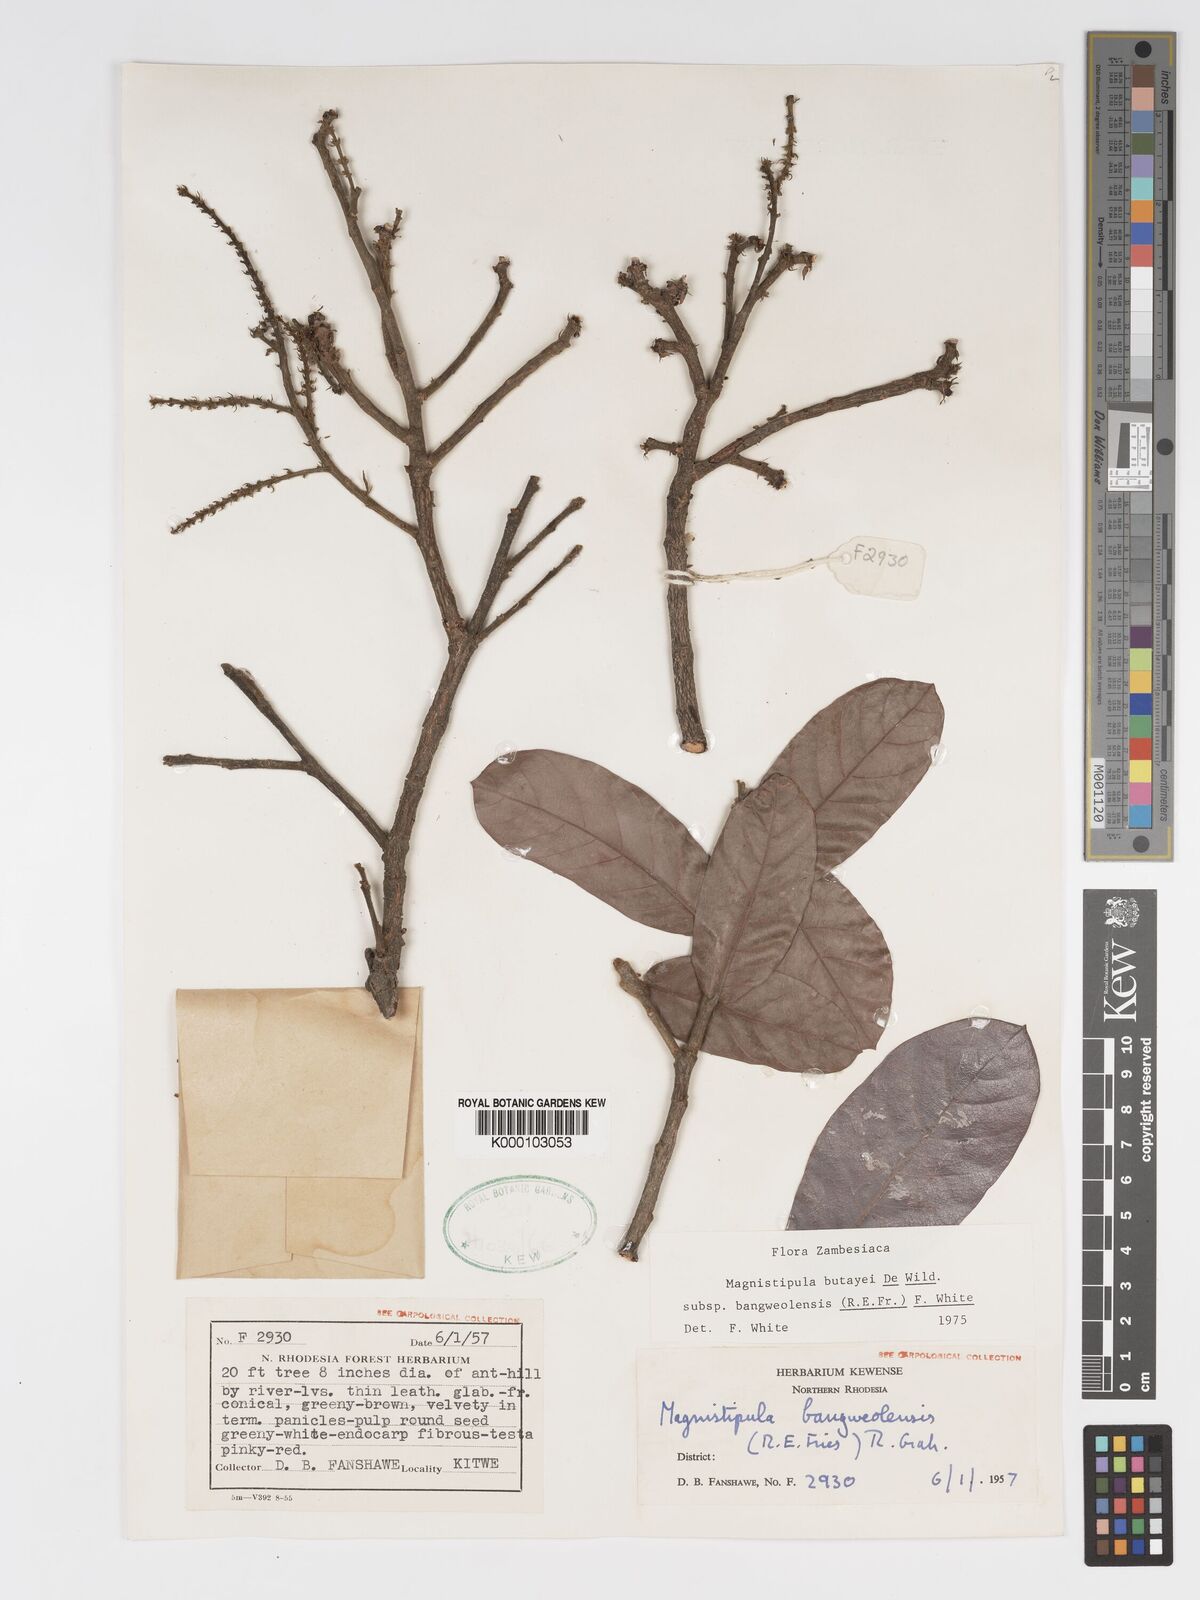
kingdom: Plantae
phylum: Tracheophyta
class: Magnoliopsida
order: Malpighiales
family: Chrysobalanaceae
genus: Magnistipula
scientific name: Magnistipula butayei
